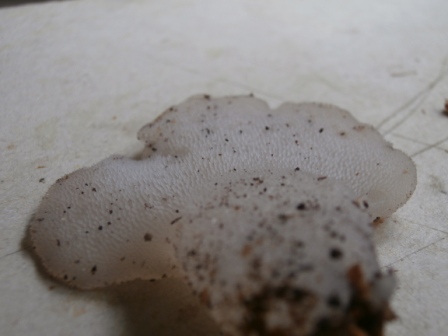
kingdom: Fungi
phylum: Basidiomycota
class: Agaricomycetes
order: Auriculariales
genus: Pseudohydnum
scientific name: Pseudohydnum gelatinosum
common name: bævretand
